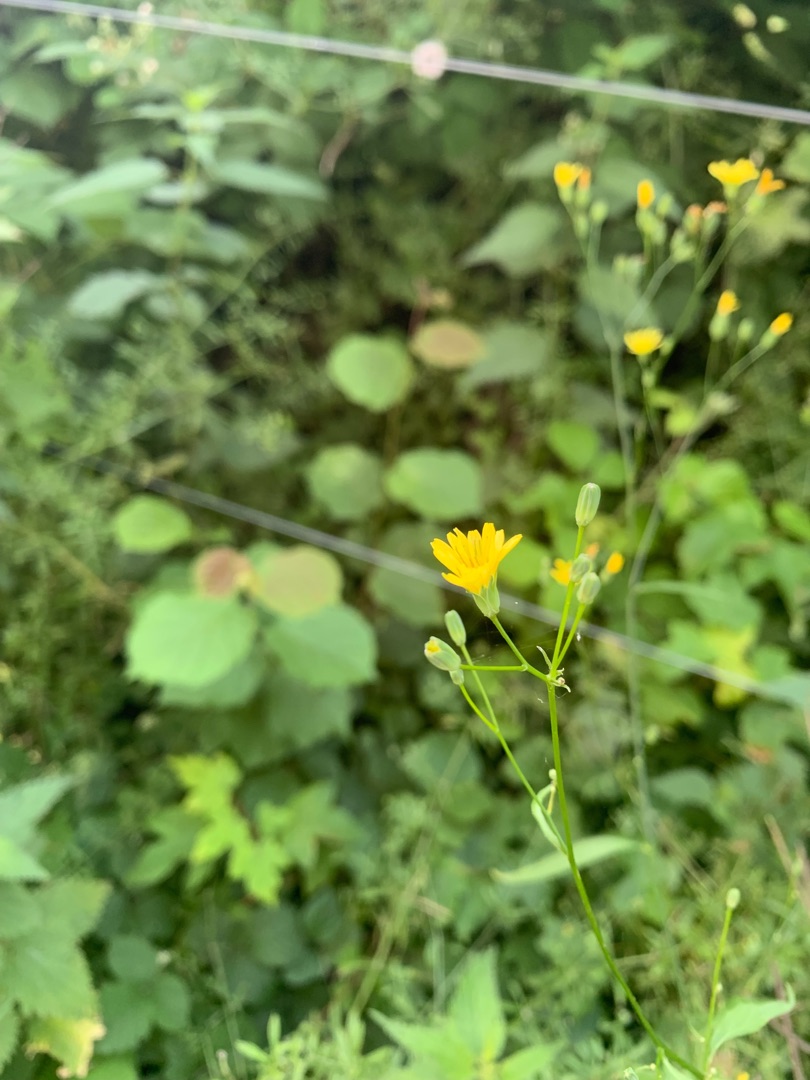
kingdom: Plantae
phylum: Tracheophyta
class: Magnoliopsida
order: Asterales
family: Asteraceae
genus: Lapsana
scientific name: Lapsana communis
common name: Haremad
